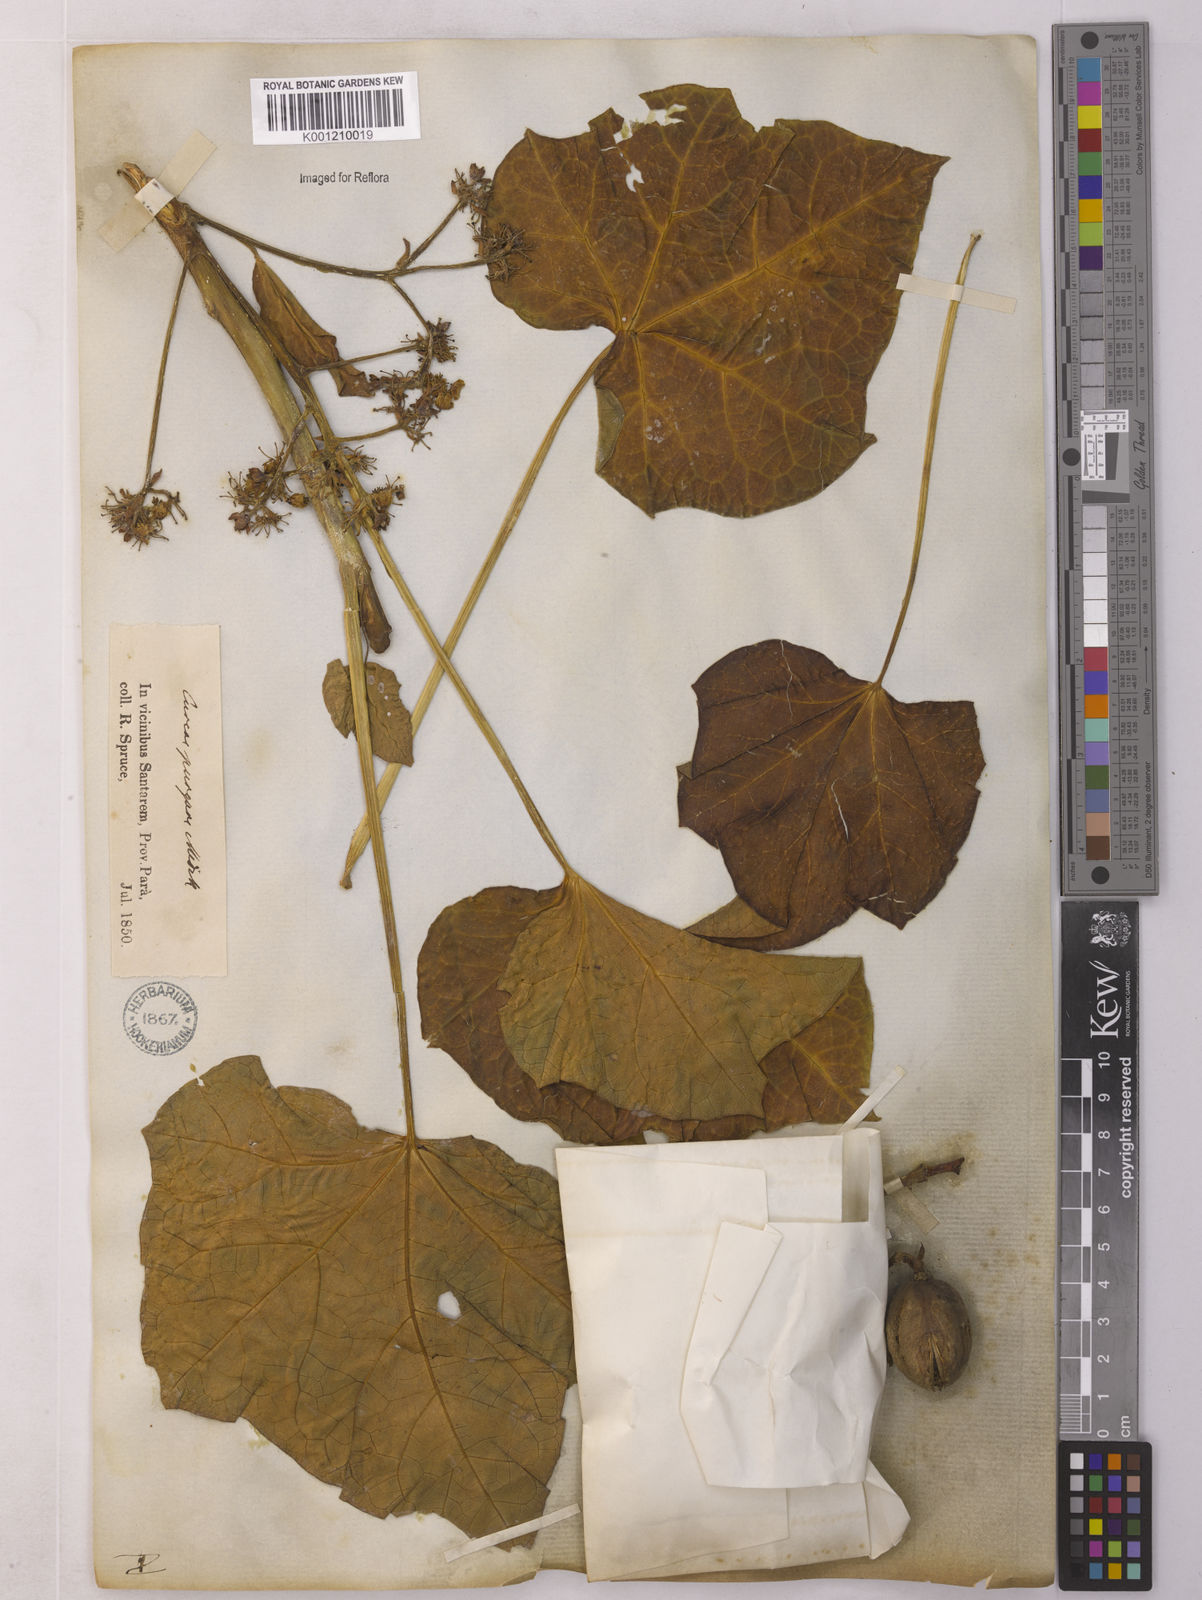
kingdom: Plantae
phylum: Tracheophyta
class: Magnoliopsida
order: Malpighiales
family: Euphorbiaceae
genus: Jatropha
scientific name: Jatropha curcas
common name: Barbados nut
